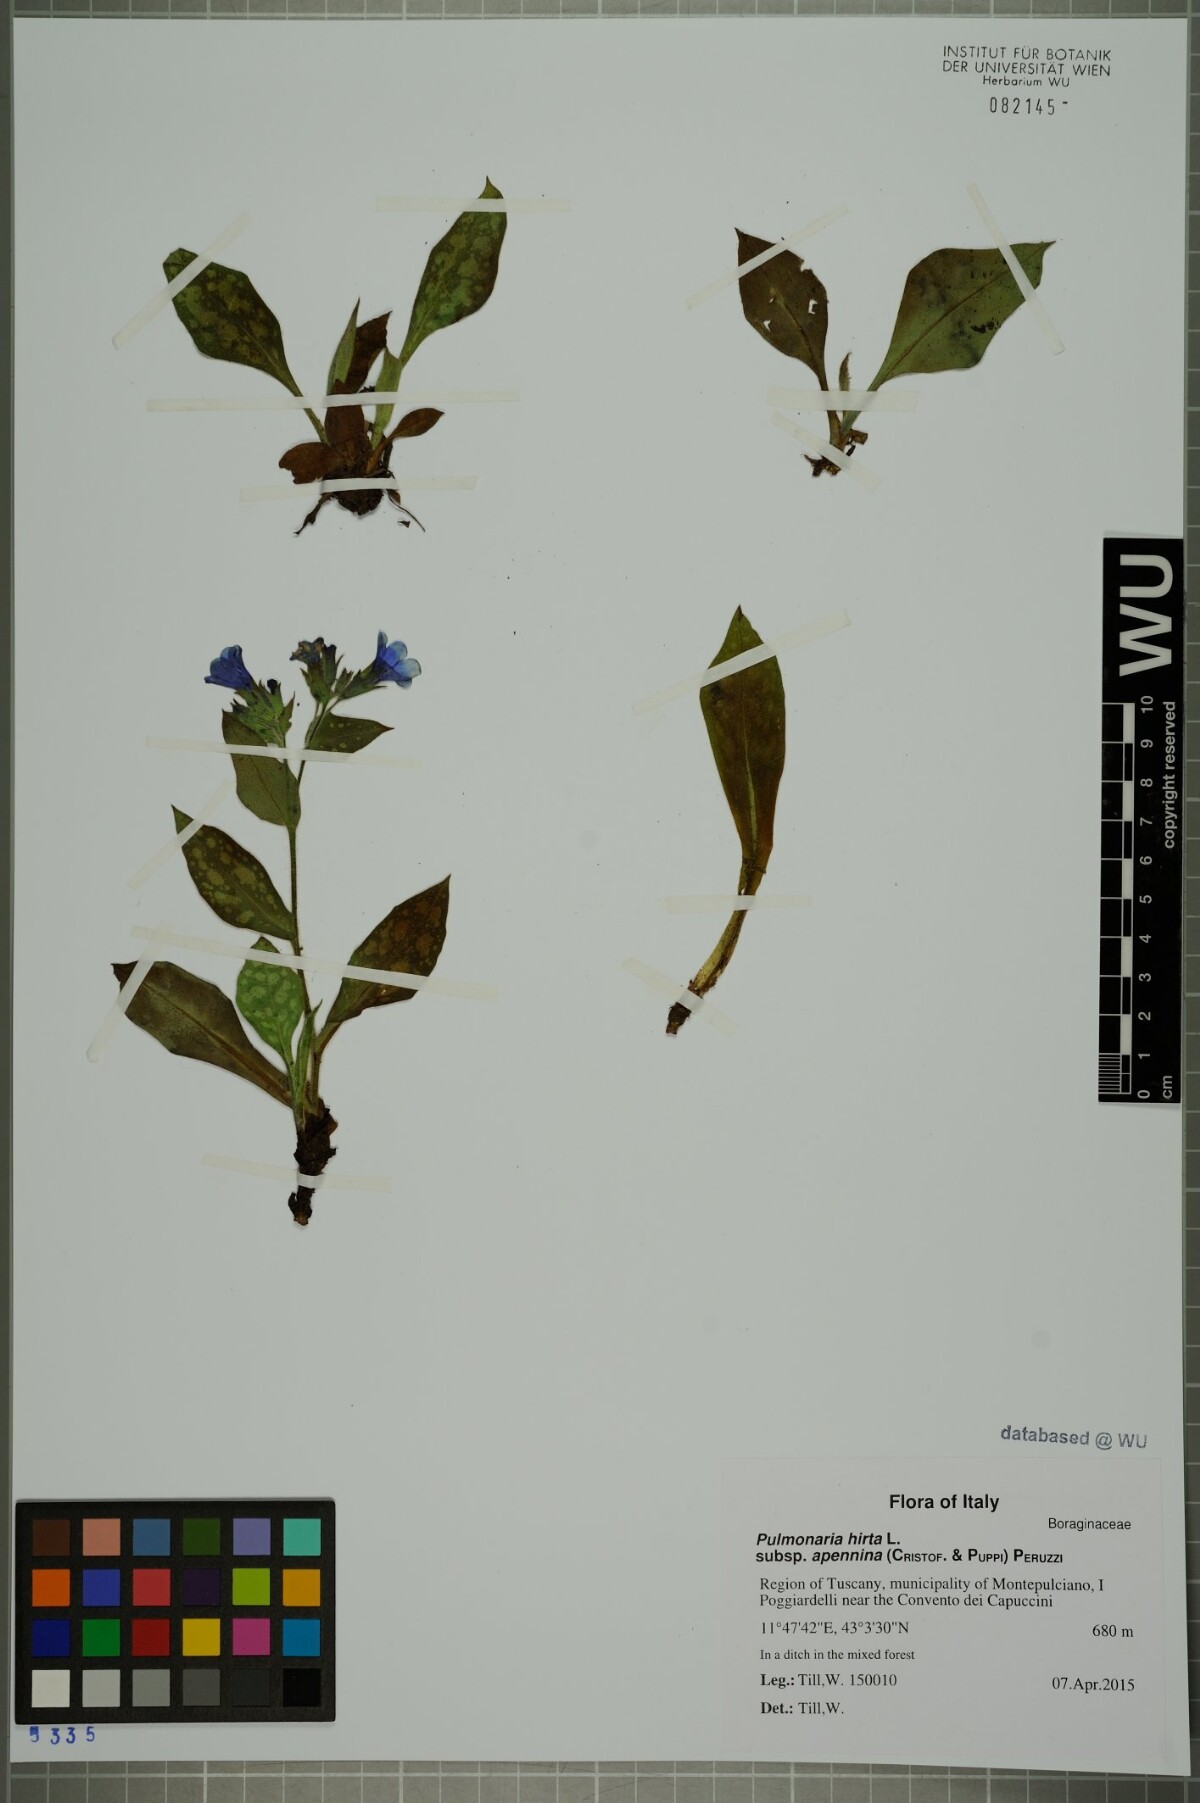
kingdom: Plantae
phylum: Tracheophyta
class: Magnoliopsida
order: Boraginales
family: Boraginaceae
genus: Pulmonaria
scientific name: Pulmonaria hirta
